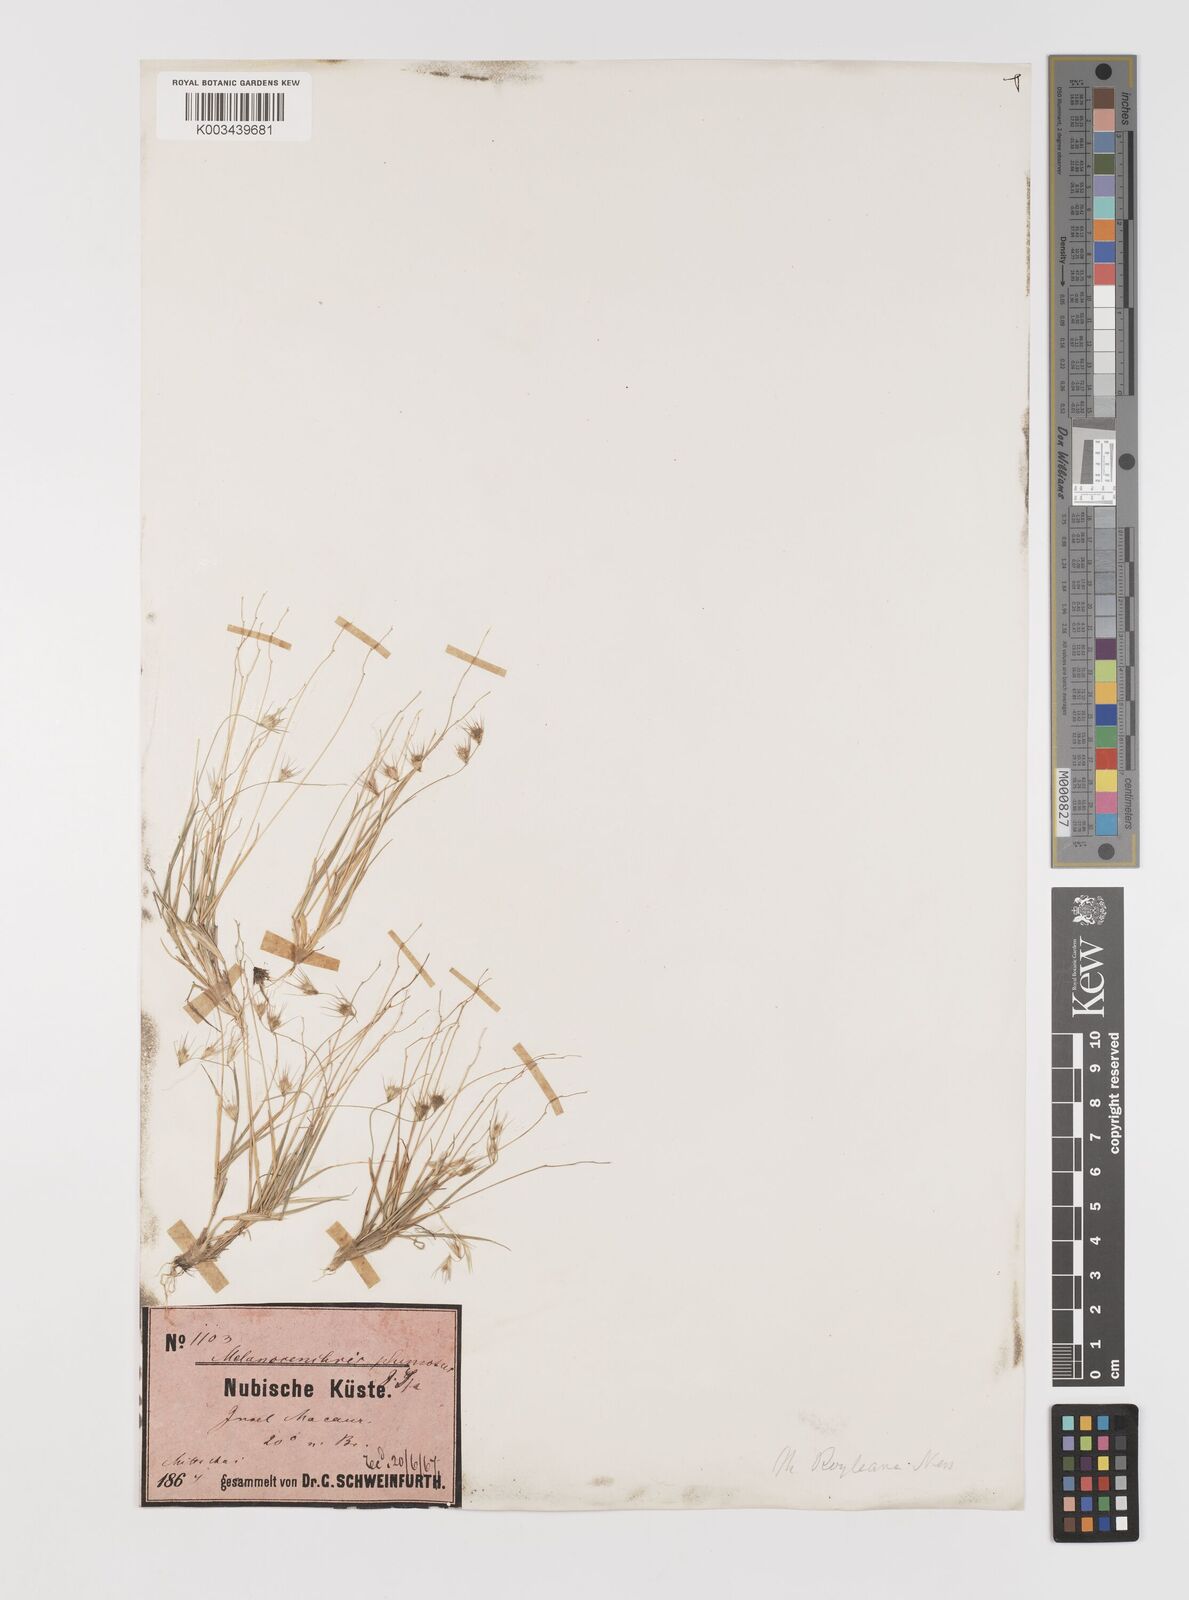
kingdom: Plantae
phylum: Tracheophyta
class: Liliopsida
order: Poales
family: Poaceae
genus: Melanocenchris
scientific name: Melanocenchris abyssinica
